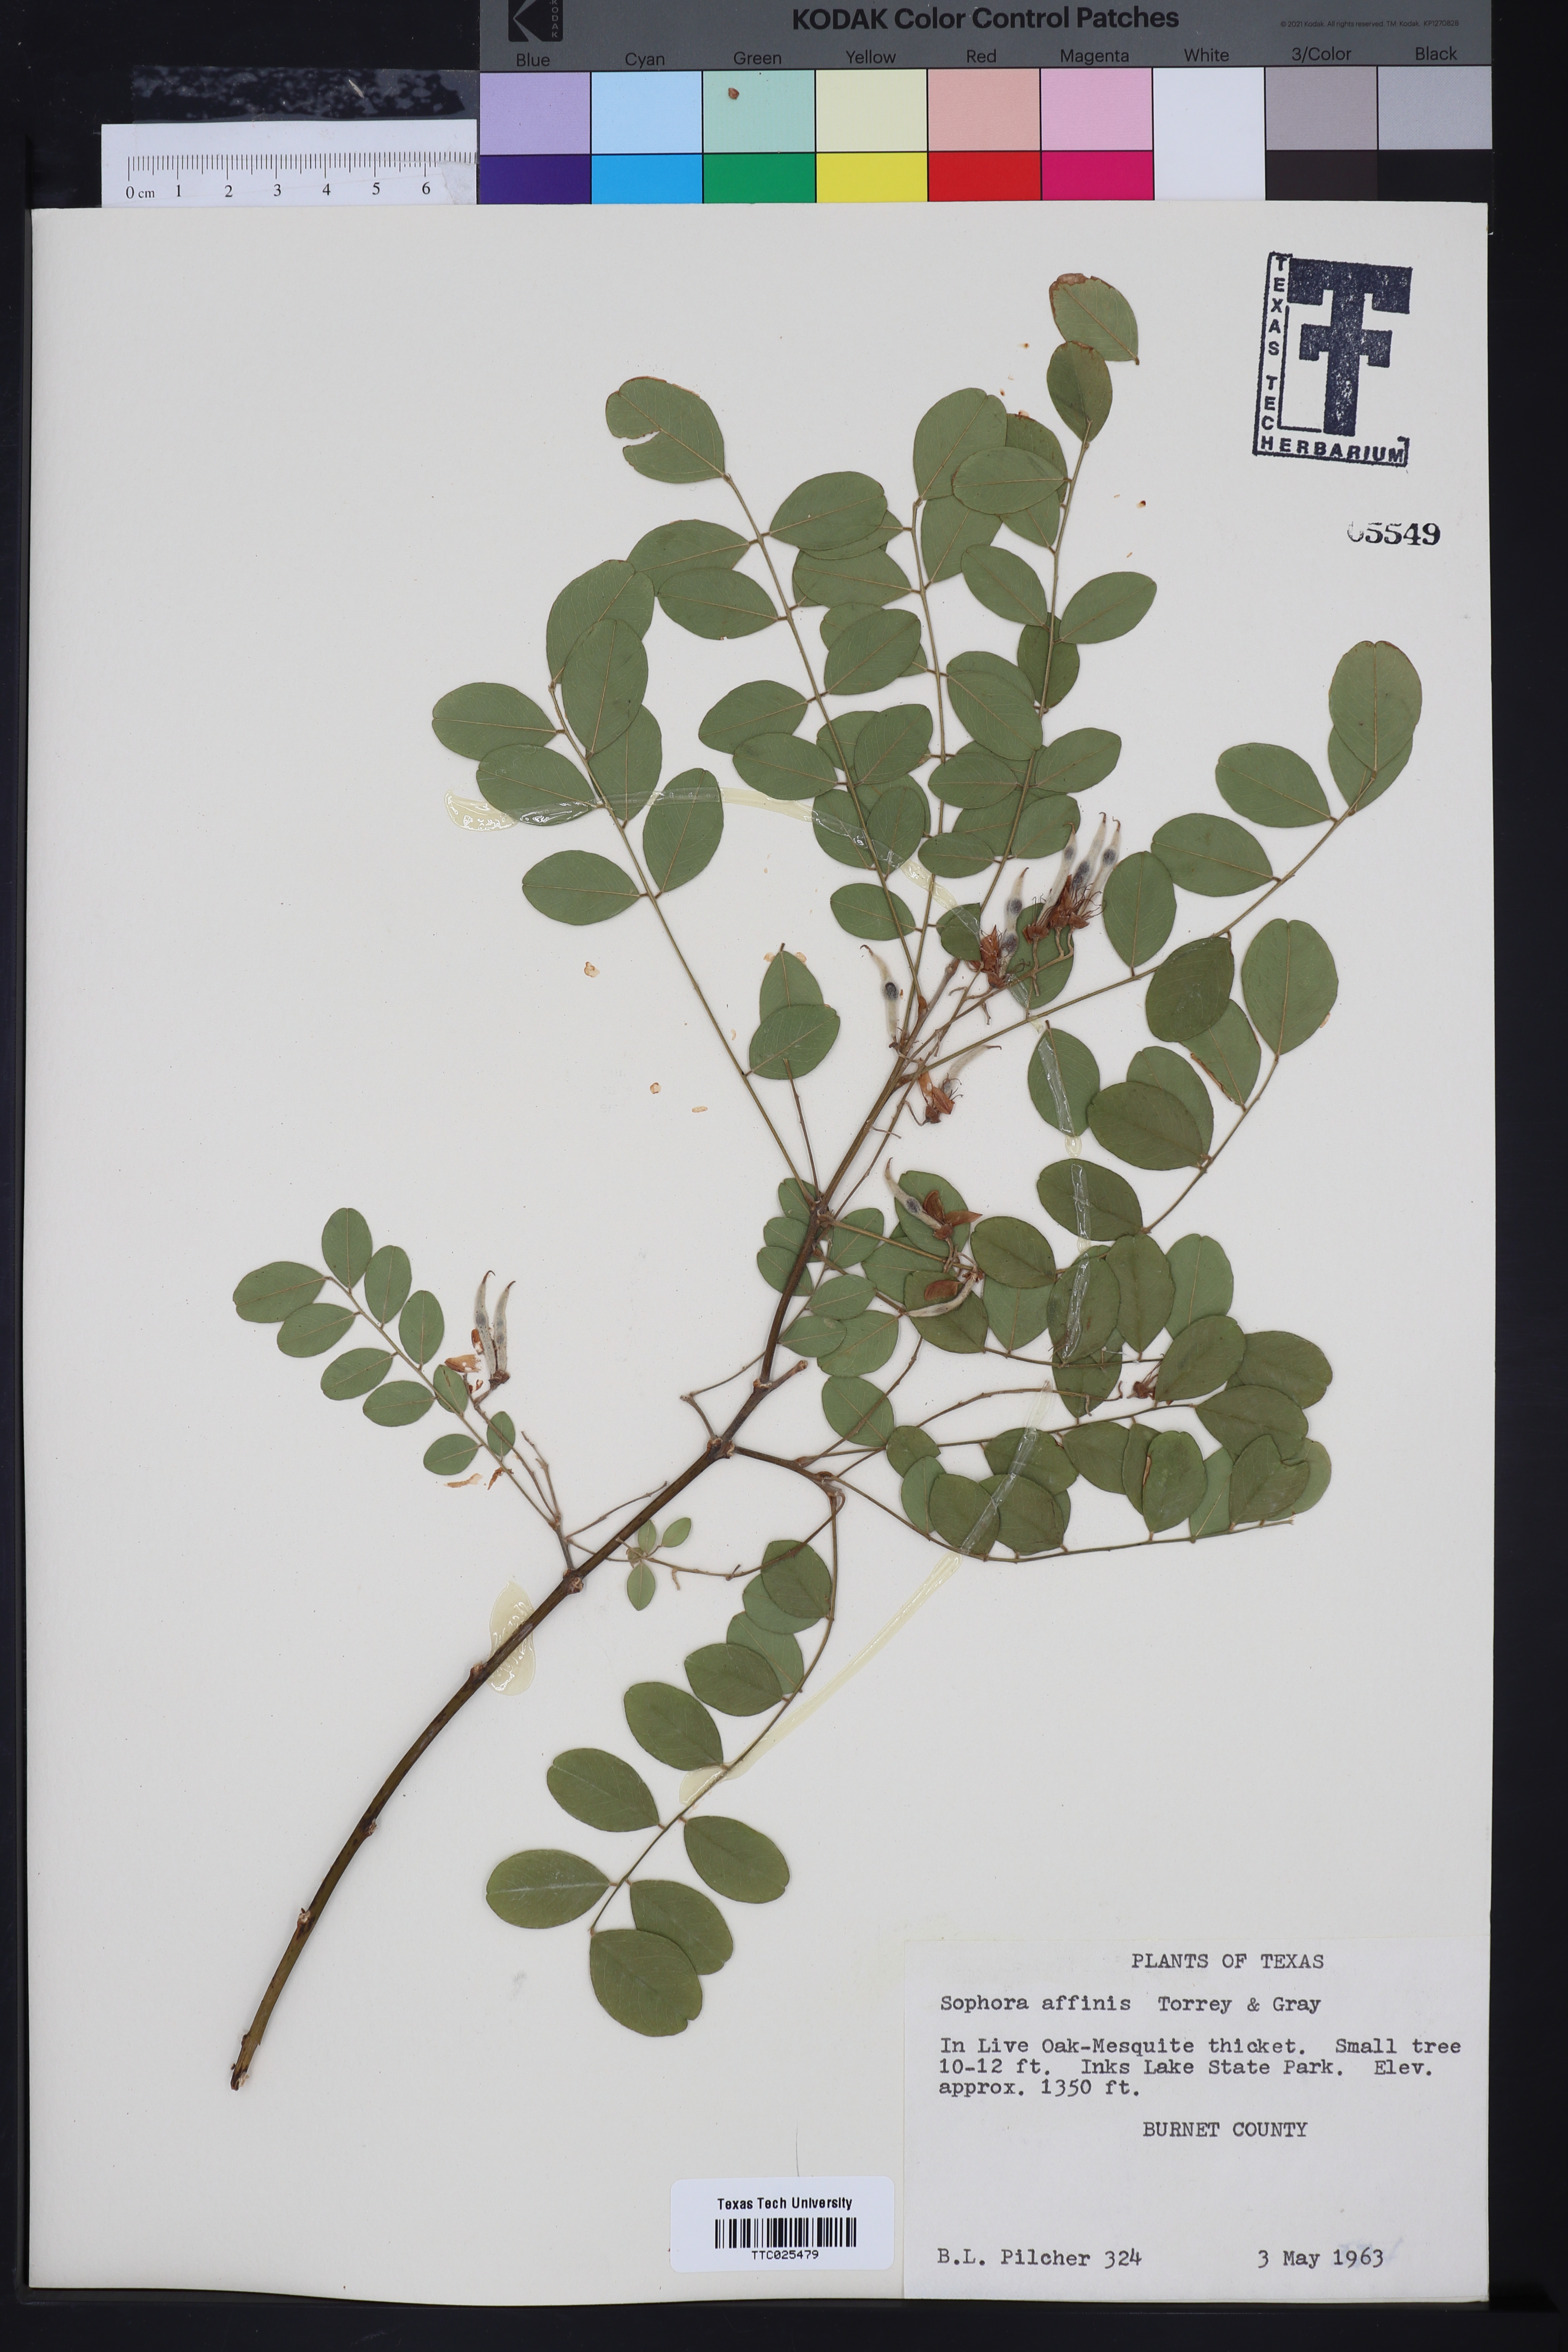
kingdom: Plantae
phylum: Tracheophyta
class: Magnoliopsida
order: Fabales
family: Fabaceae
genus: Styphnolobium
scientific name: Styphnolobium affine
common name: Texas sophora
